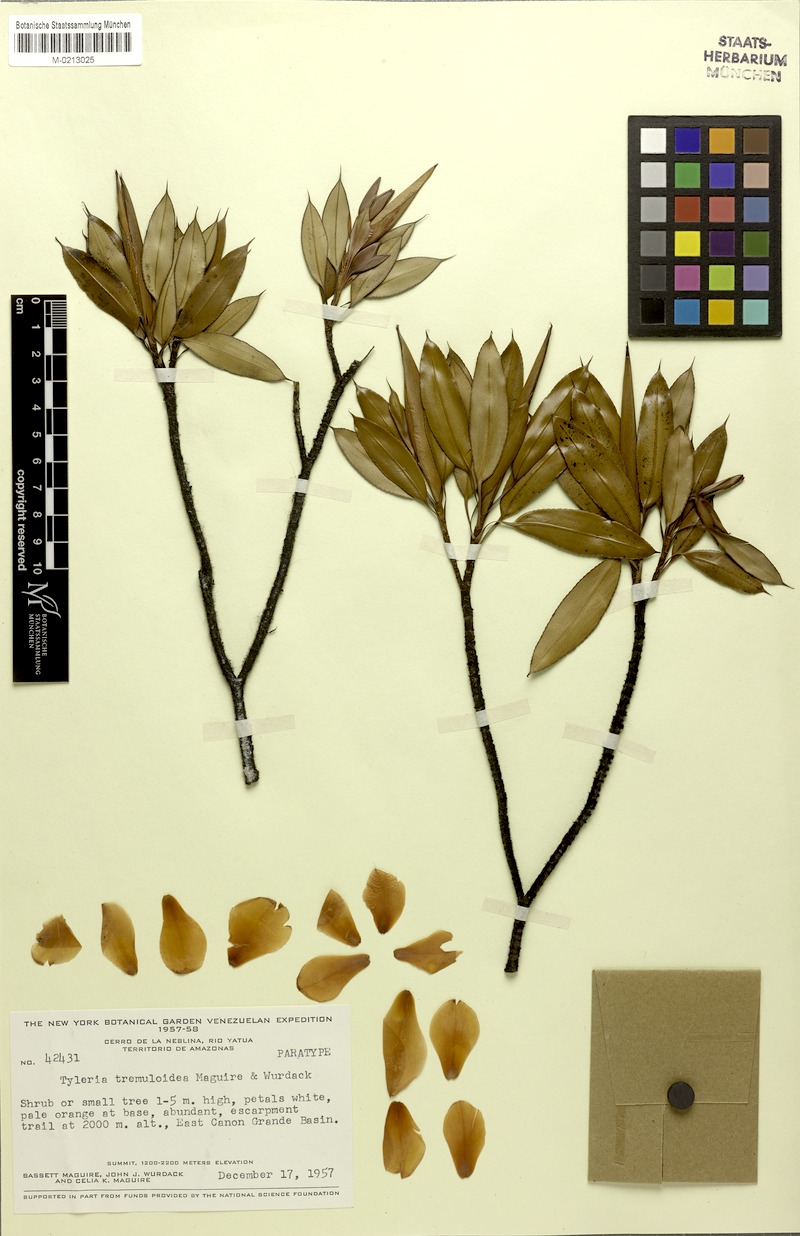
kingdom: Plantae
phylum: Tracheophyta
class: Magnoliopsida
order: Malpighiales
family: Ochnaceae
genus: Tyleria
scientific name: Tyleria tremuloidea
